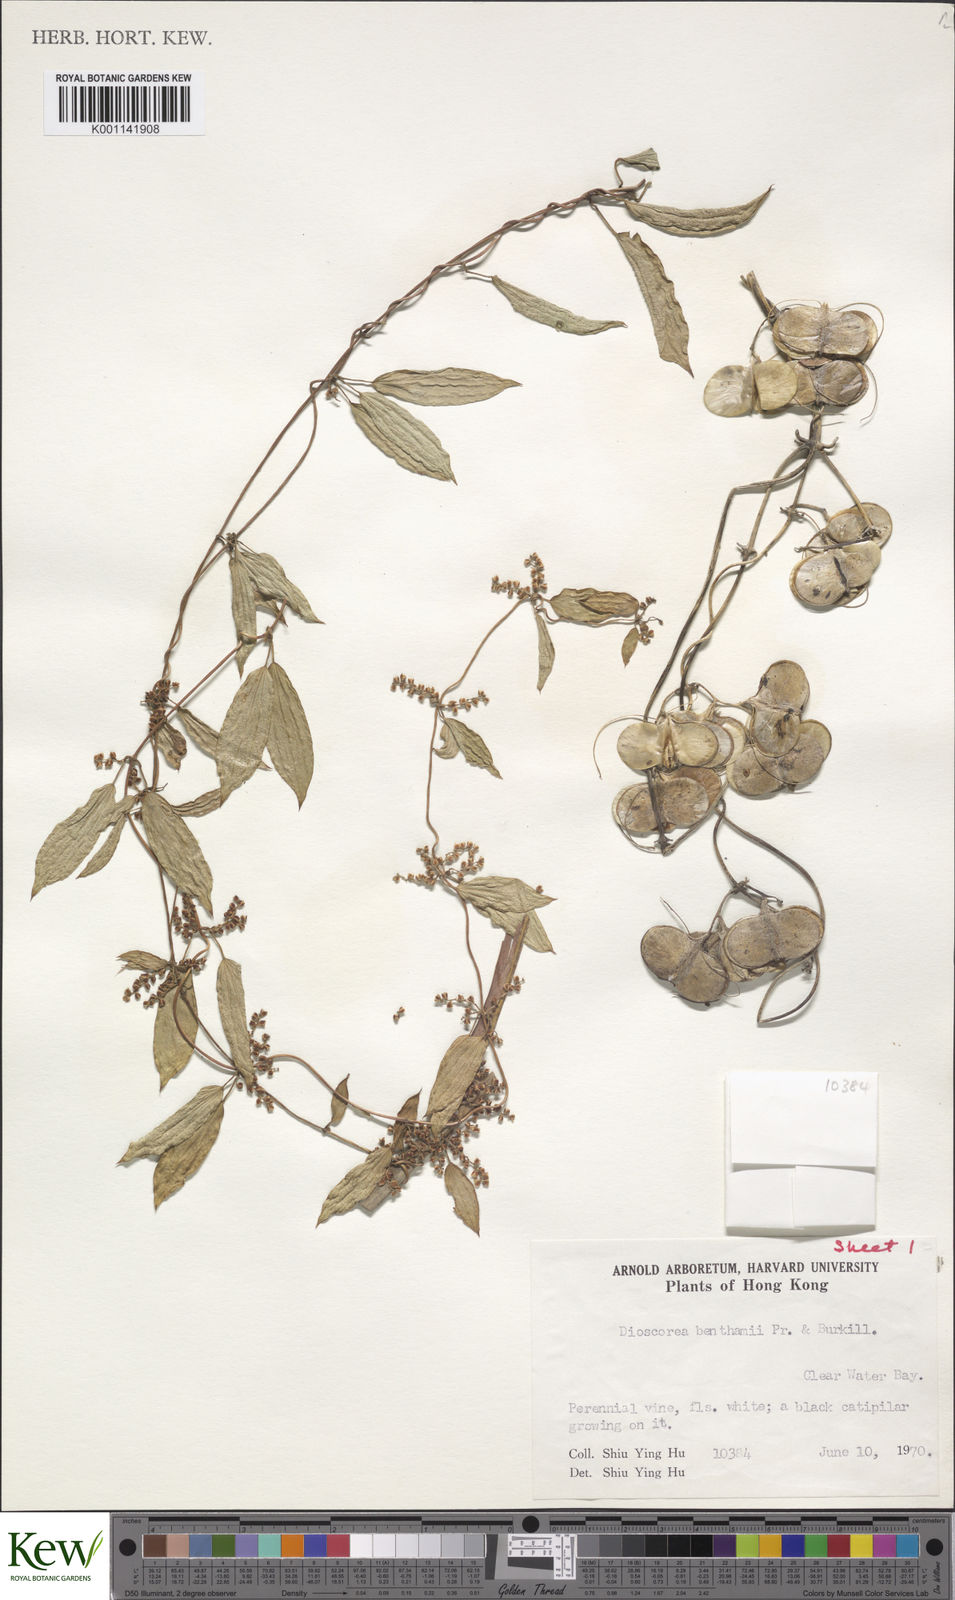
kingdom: Plantae
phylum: Tracheophyta
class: Liliopsida
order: Dioscoreales
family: Dioscoreaceae
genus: Dioscorea
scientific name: Dioscorea benthamii
